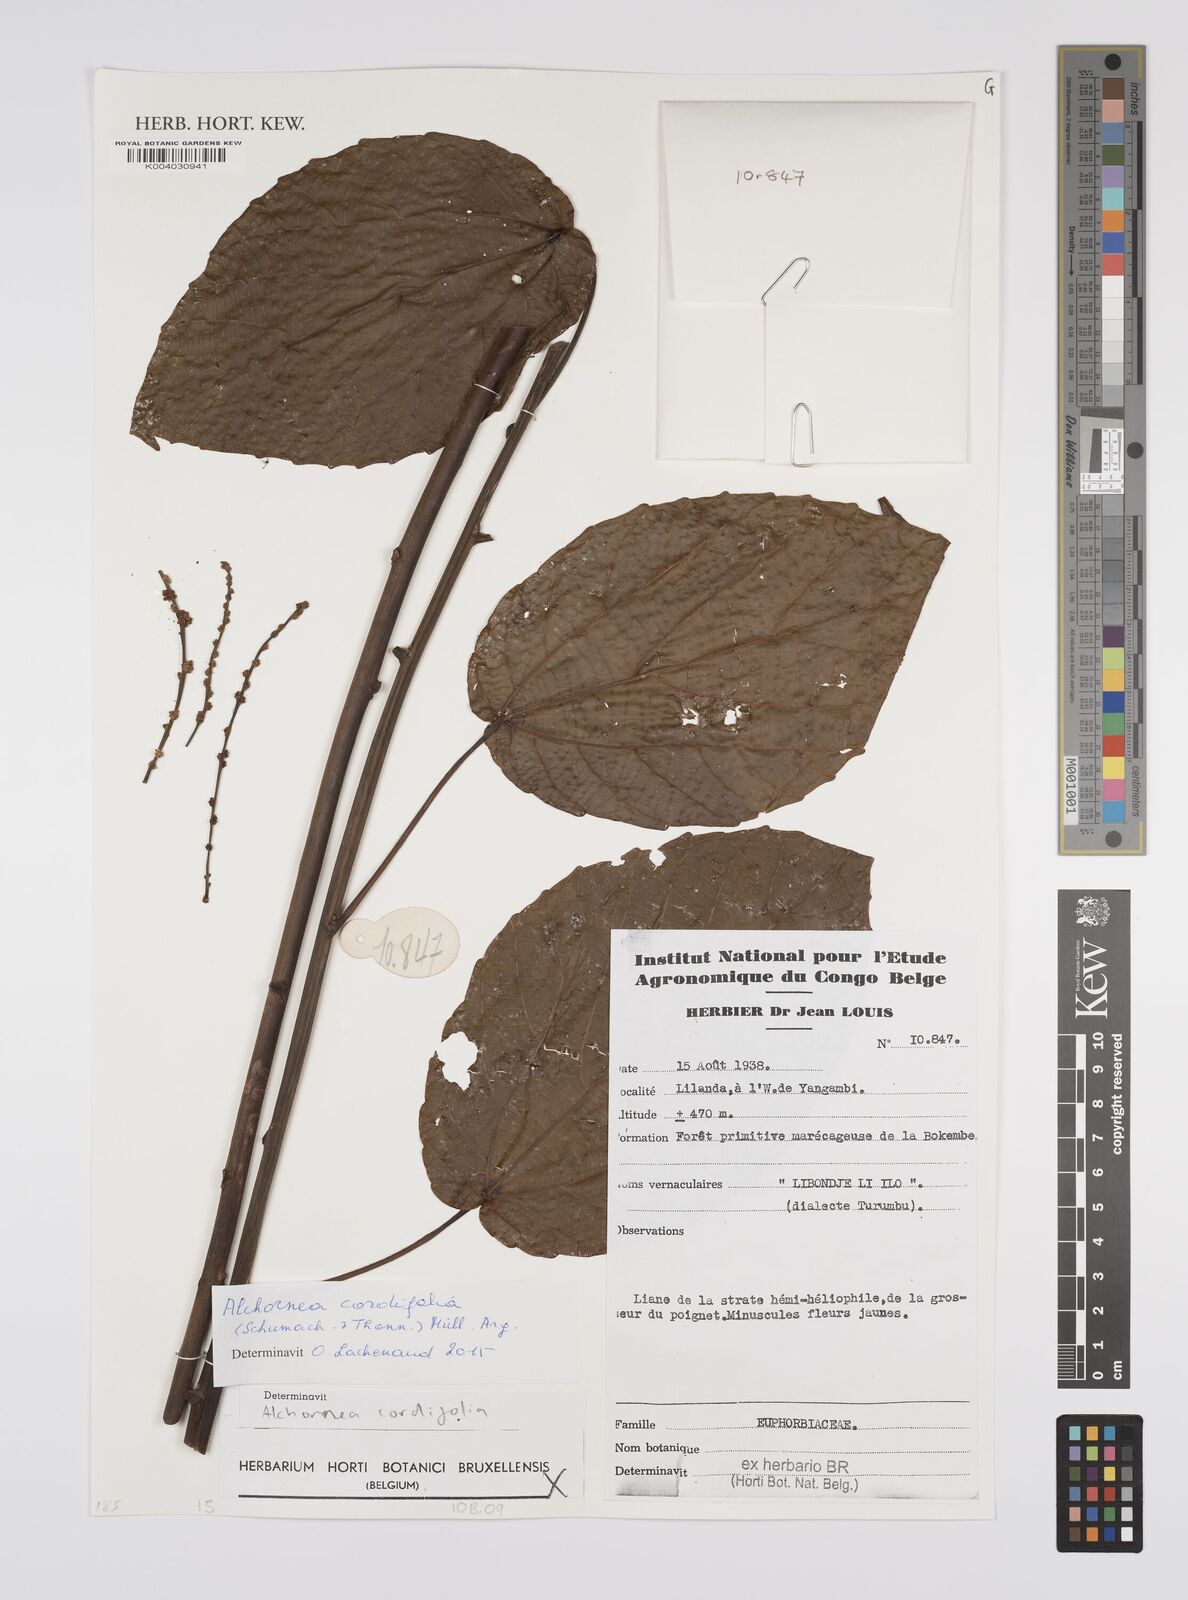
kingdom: Plantae
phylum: Tracheophyta
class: Magnoliopsida
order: Malpighiales
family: Euphorbiaceae
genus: Alchornea
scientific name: Alchornea cordifolia
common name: Christmasbush
